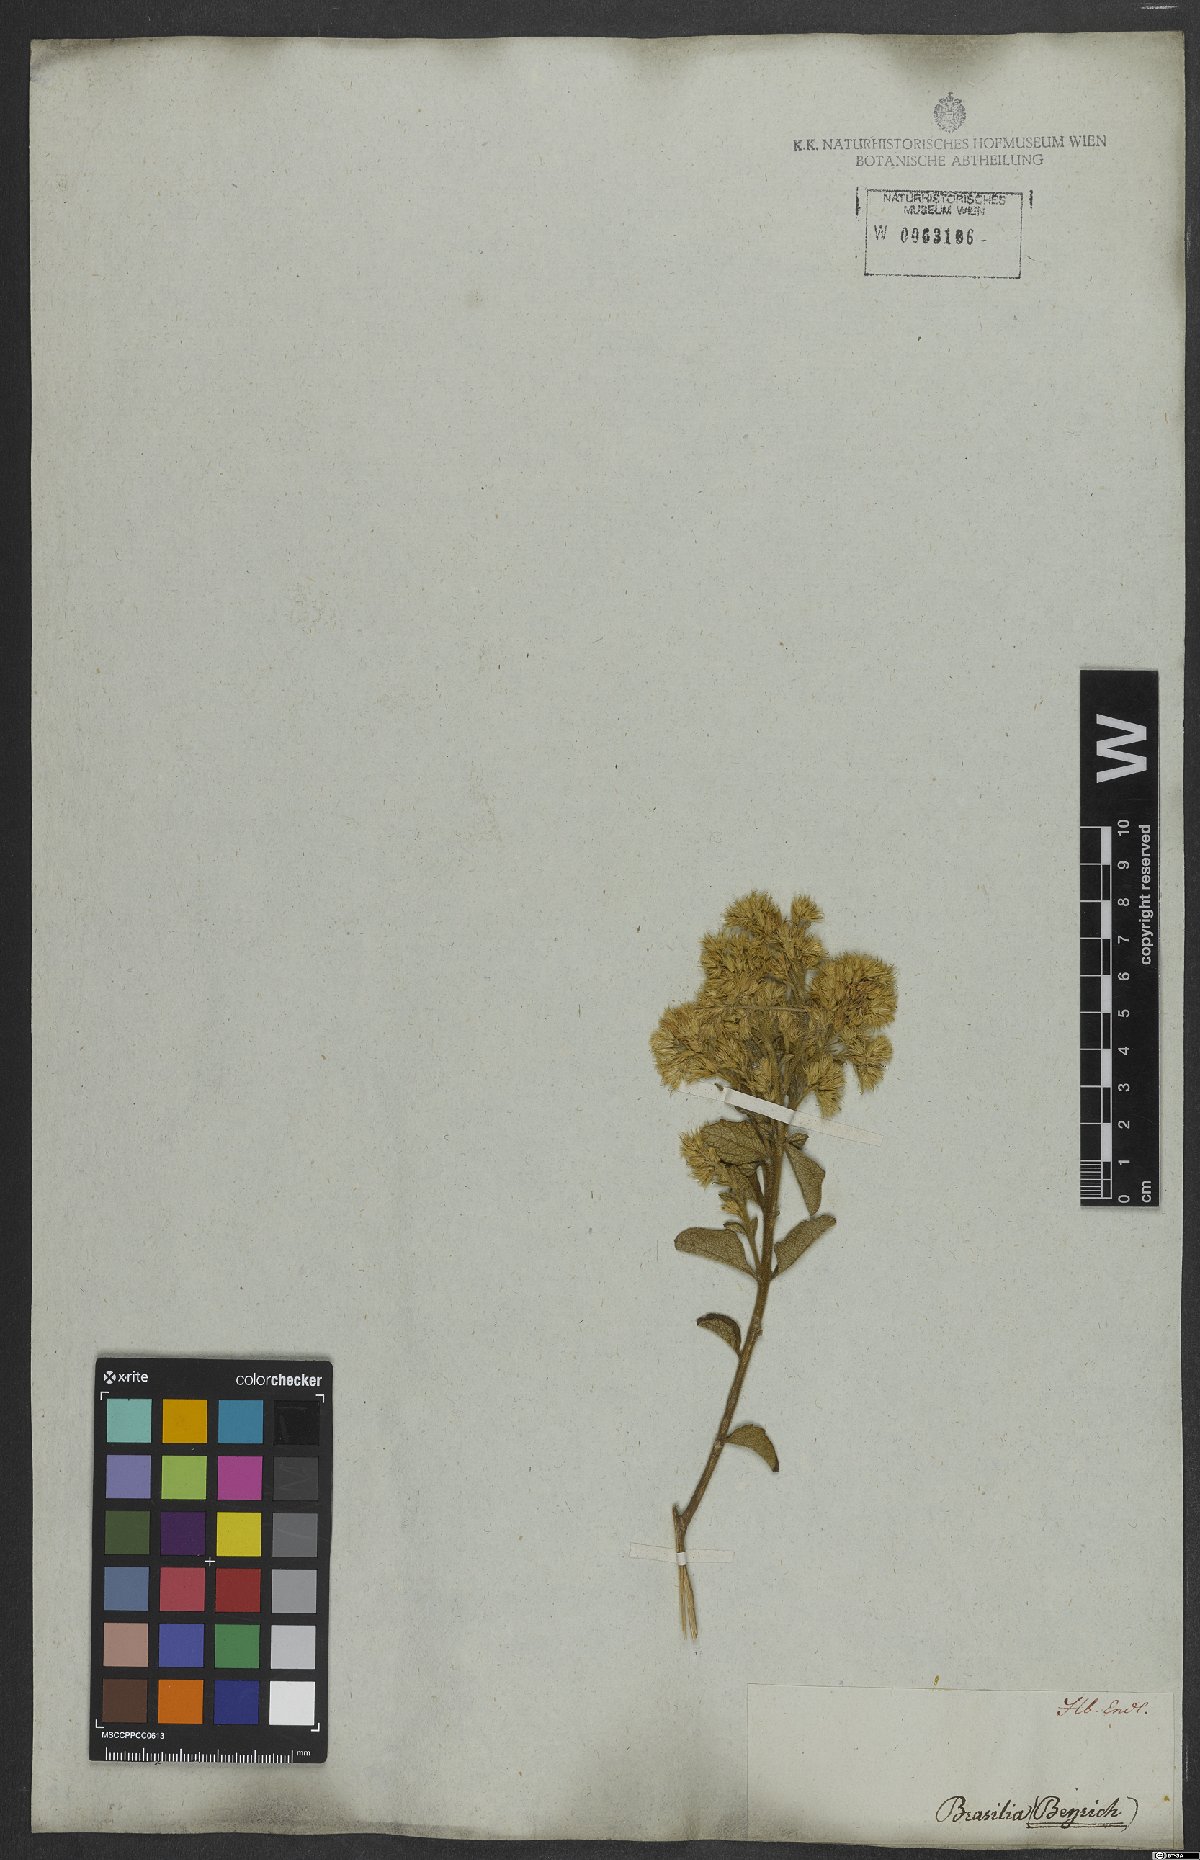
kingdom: Plantae
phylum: Tracheophyta
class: Magnoliopsida
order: Asterales
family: Asteraceae
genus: Stomatanthes
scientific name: Stomatanthes dictyophyllus
